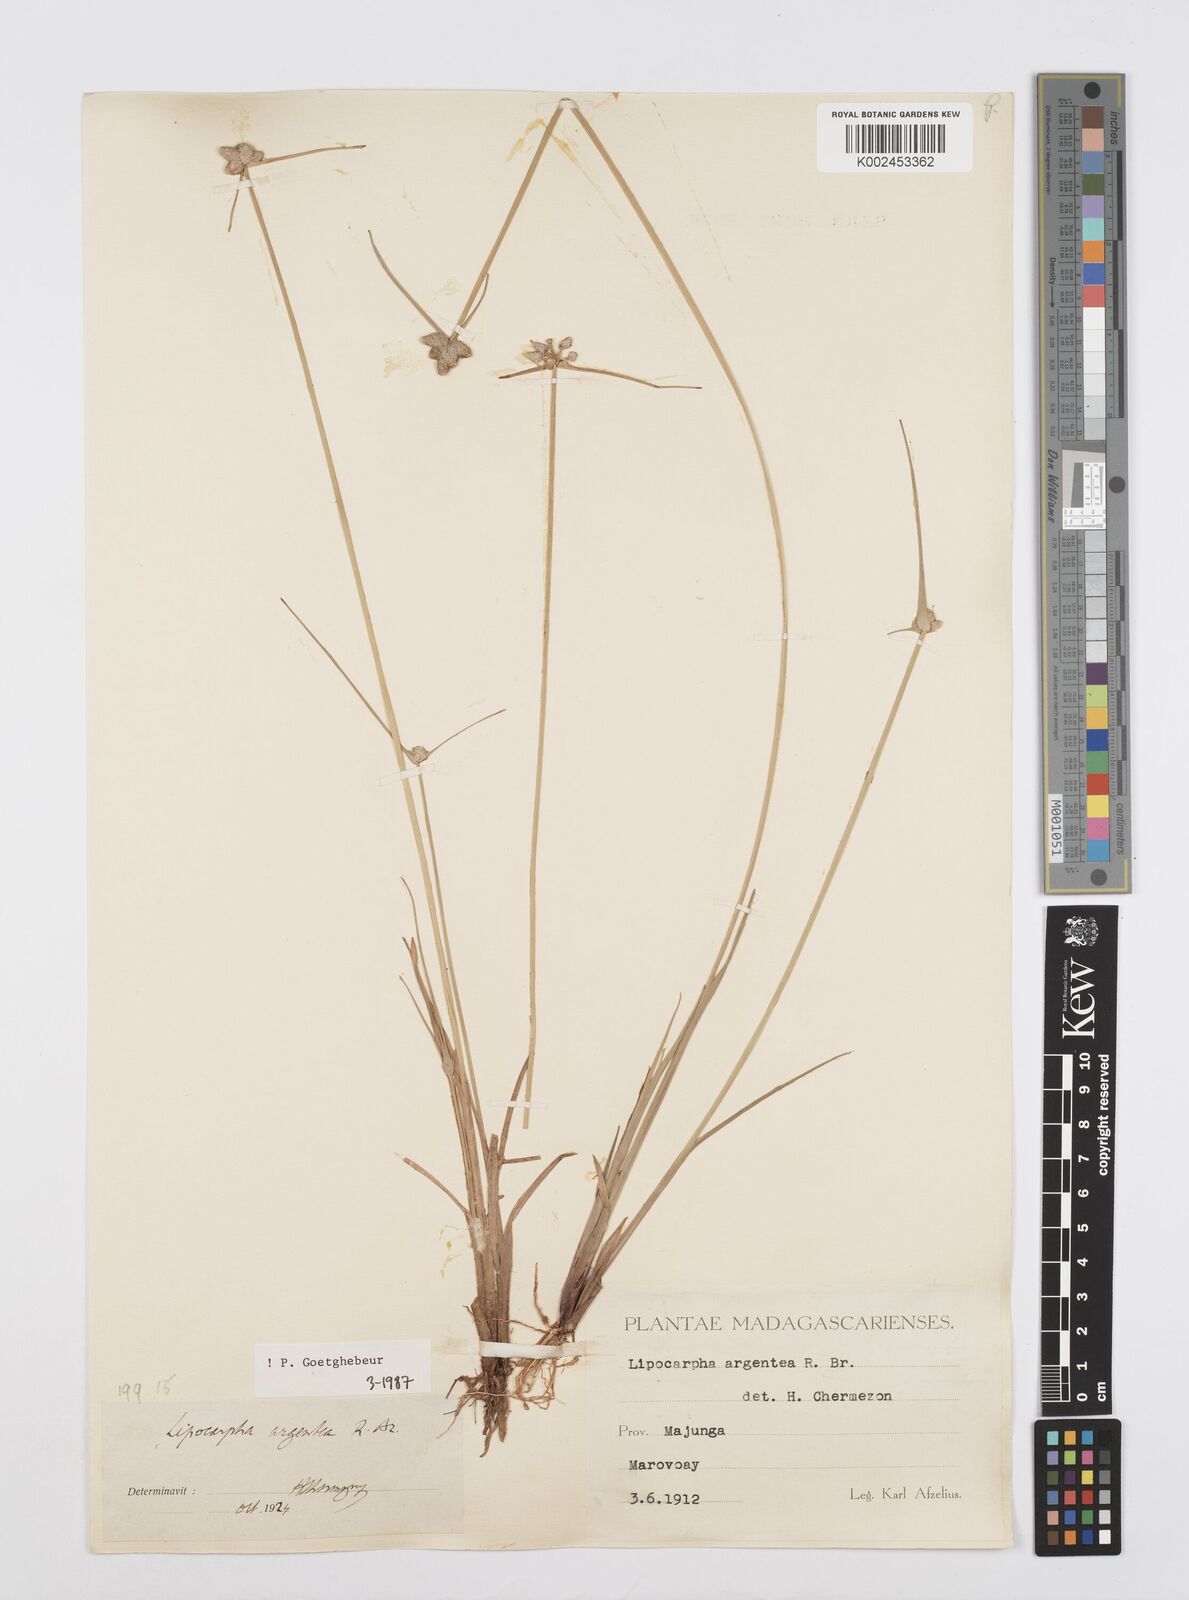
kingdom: Plantae
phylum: Tracheophyta
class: Liliopsida
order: Poales
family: Cyperaceae
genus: Cyperus
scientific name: Cyperus
